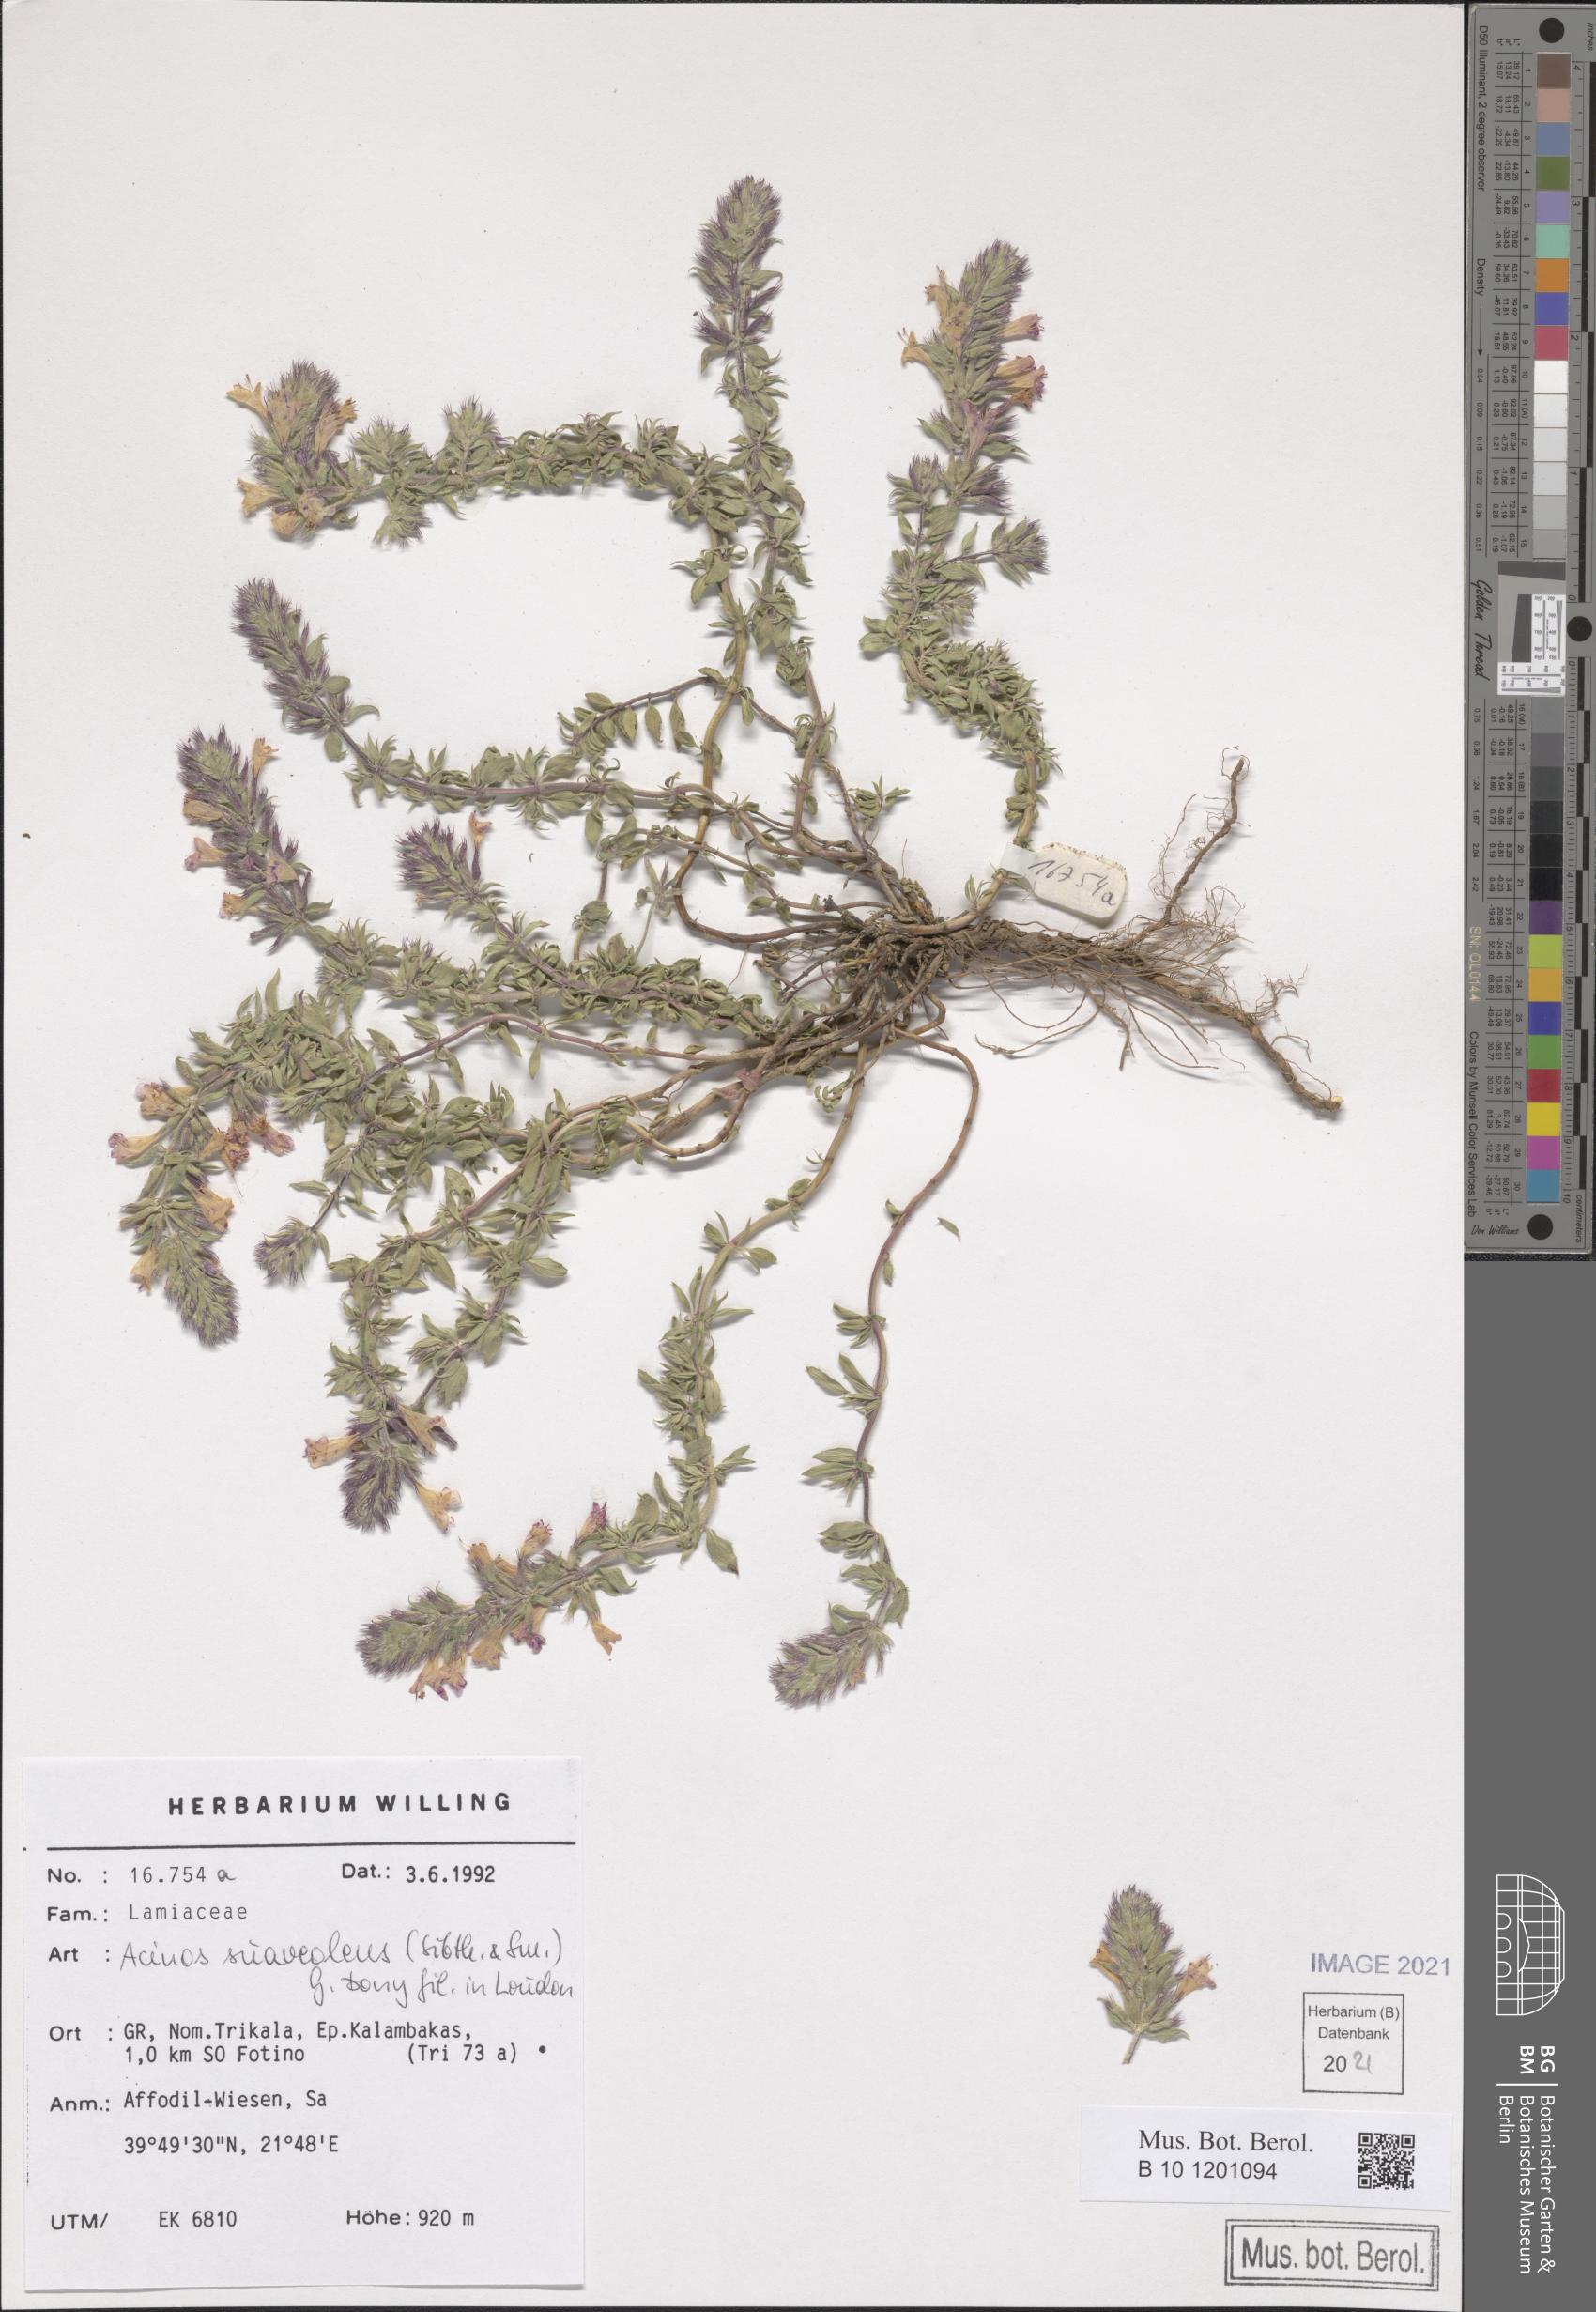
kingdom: Plantae
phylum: Tracheophyta
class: Magnoliopsida
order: Lamiales
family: Lamiaceae
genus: Clinopodium
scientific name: Clinopodium suaveolens
